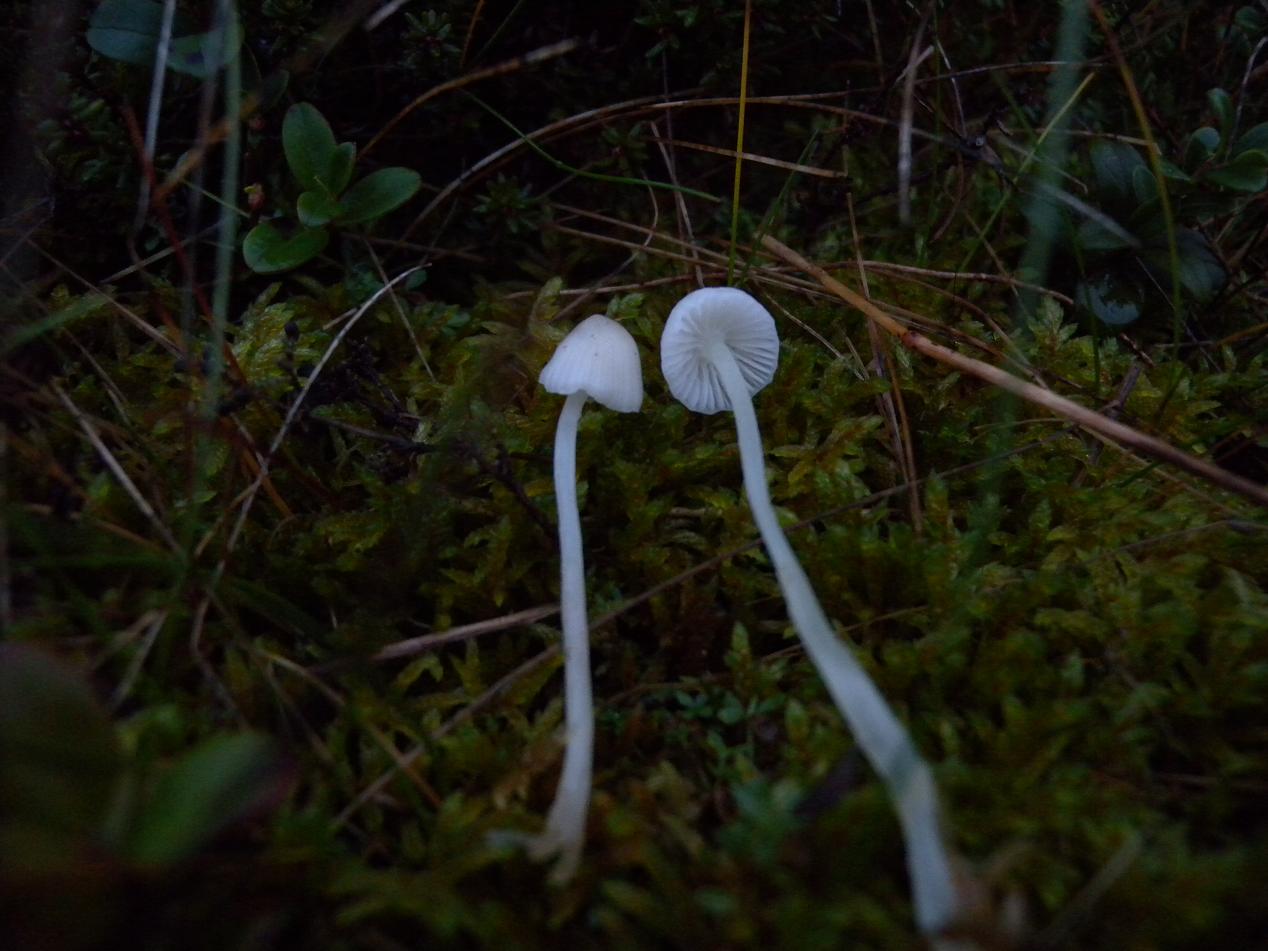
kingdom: Fungi
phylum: Basidiomycota
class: Agaricomycetes
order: Agaricales
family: Mycenaceae
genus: Mycena
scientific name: Mycena epipterygia
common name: Yellowleg bonnet
